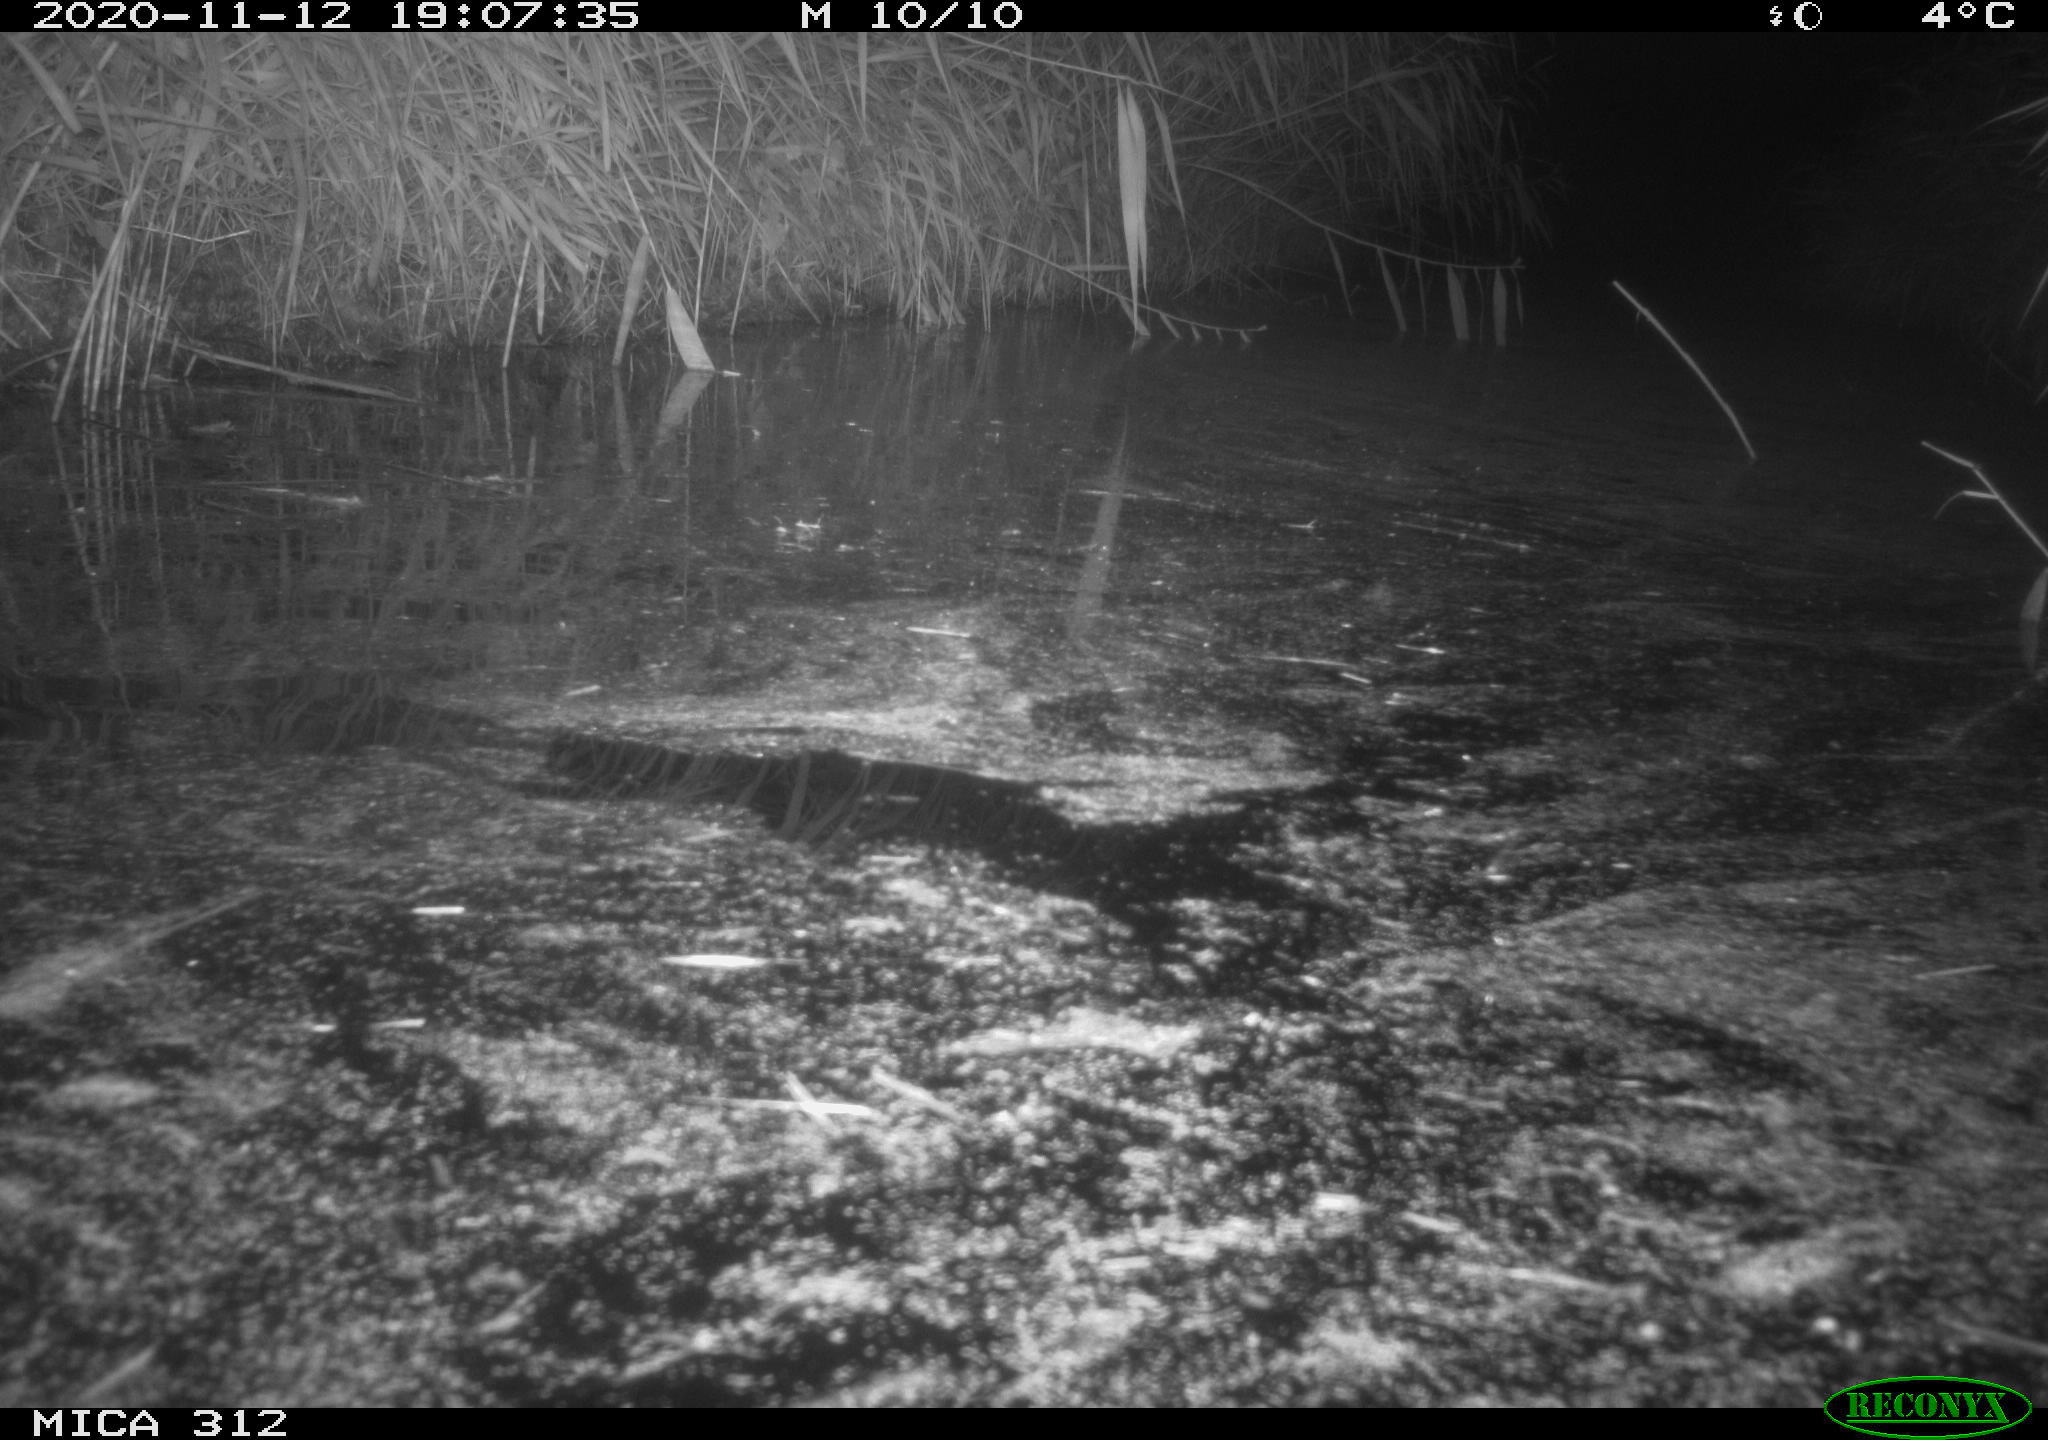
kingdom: Animalia
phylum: Chordata
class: Mammalia
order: Rodentia
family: Muridae
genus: Rattus
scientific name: Rattus norvegicus
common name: Brown rat
